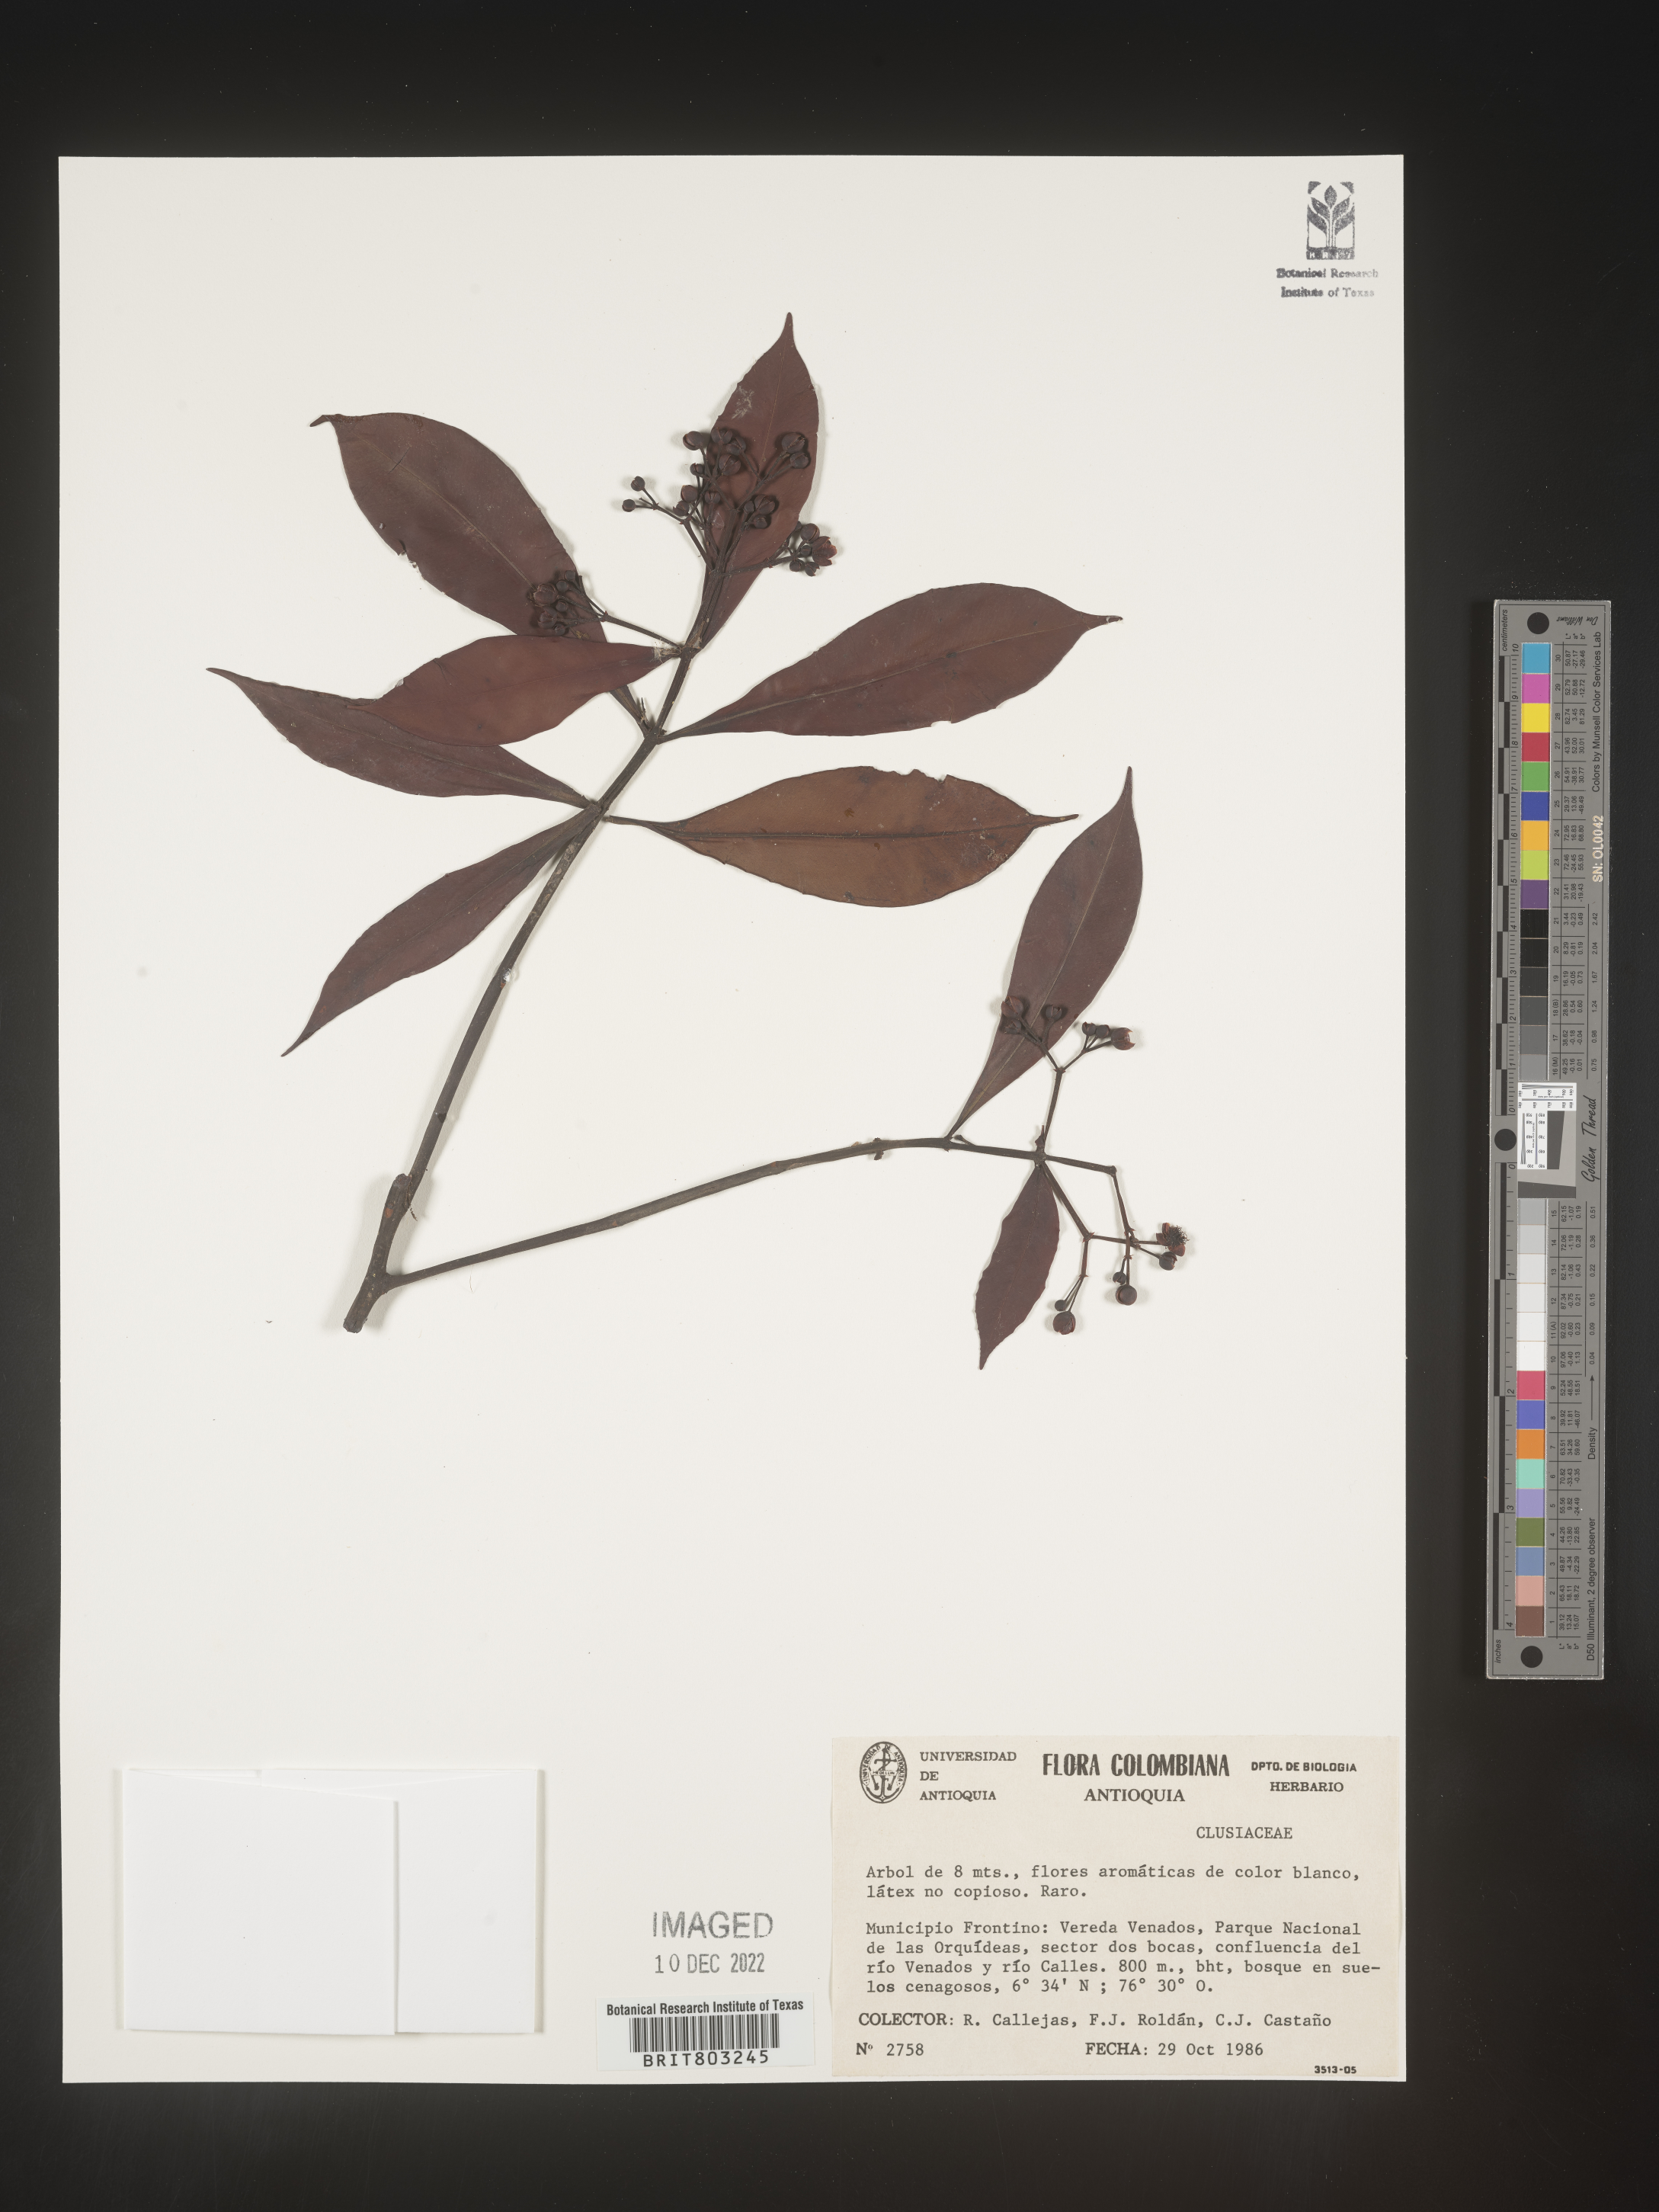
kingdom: Plantae
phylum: Tracheophyta
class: Magnoliopsida
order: Malpighiales
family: Clusiaceae
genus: Tovomita
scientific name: Tovomita
